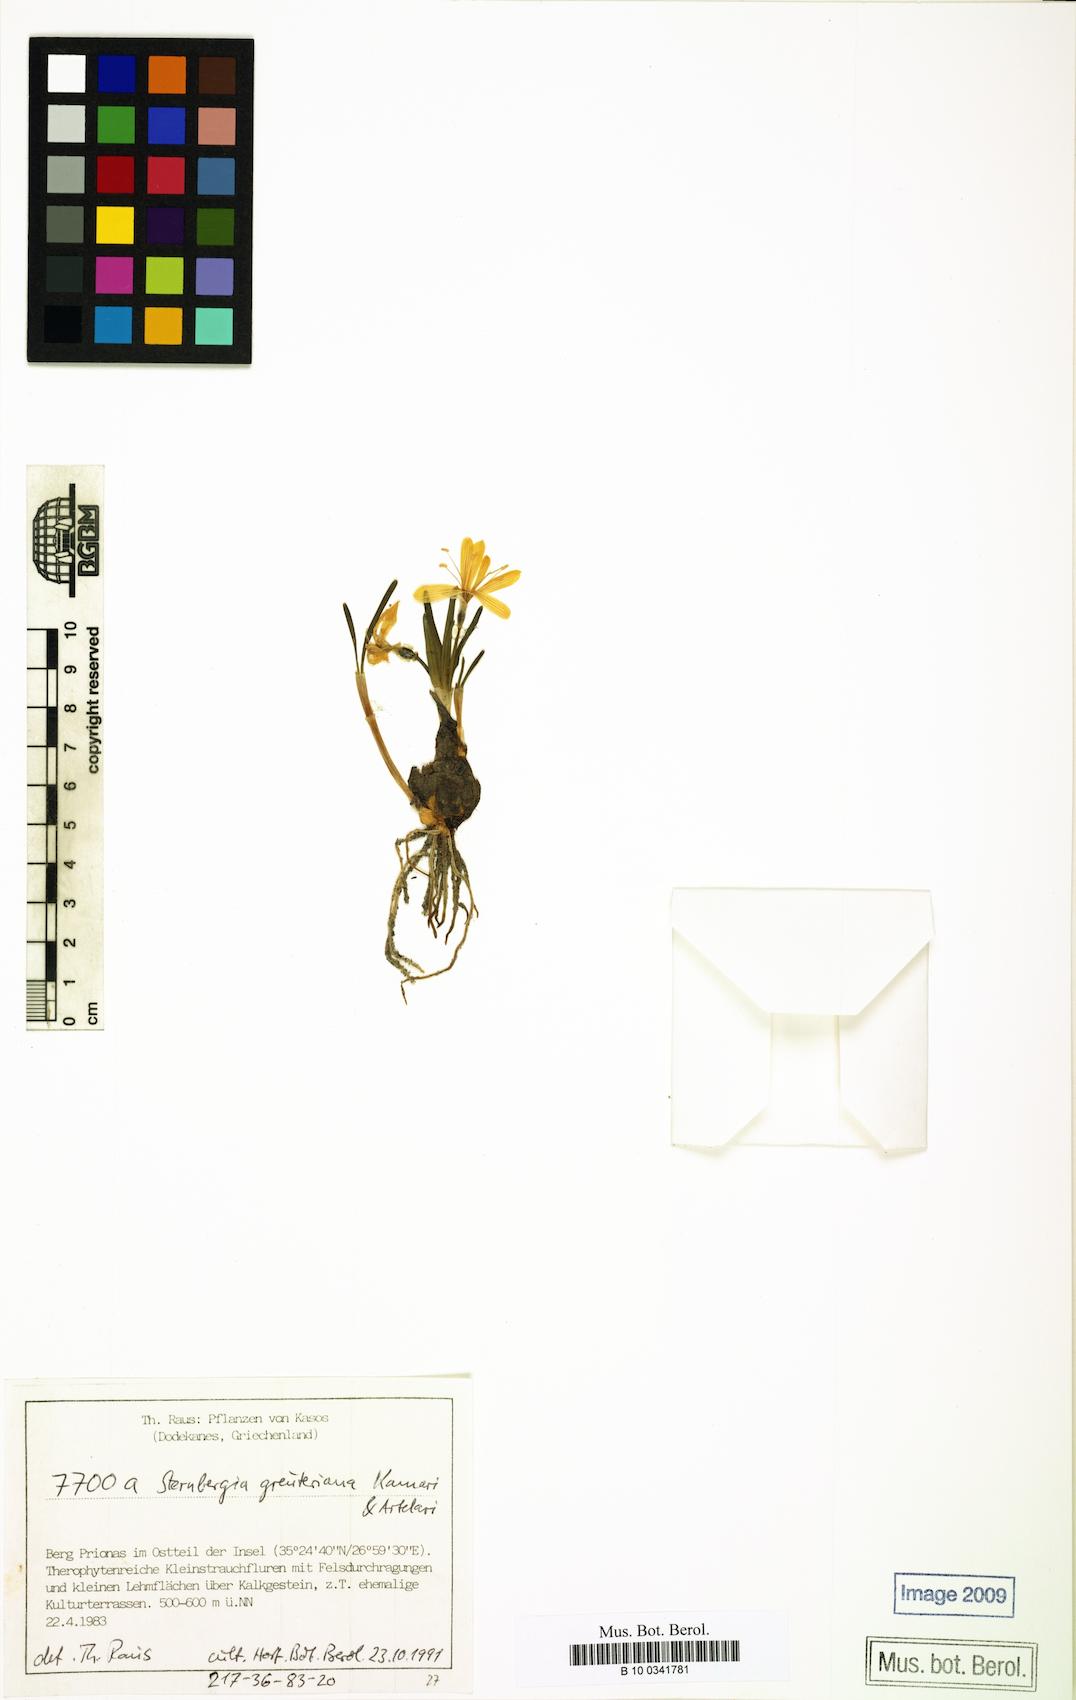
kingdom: Plantae
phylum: Tracheophyta
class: Liliopsida
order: Asparagales
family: Amaryllidaceae
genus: Sternbergia
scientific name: Sternbergia lutea
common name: Winter daffodil
